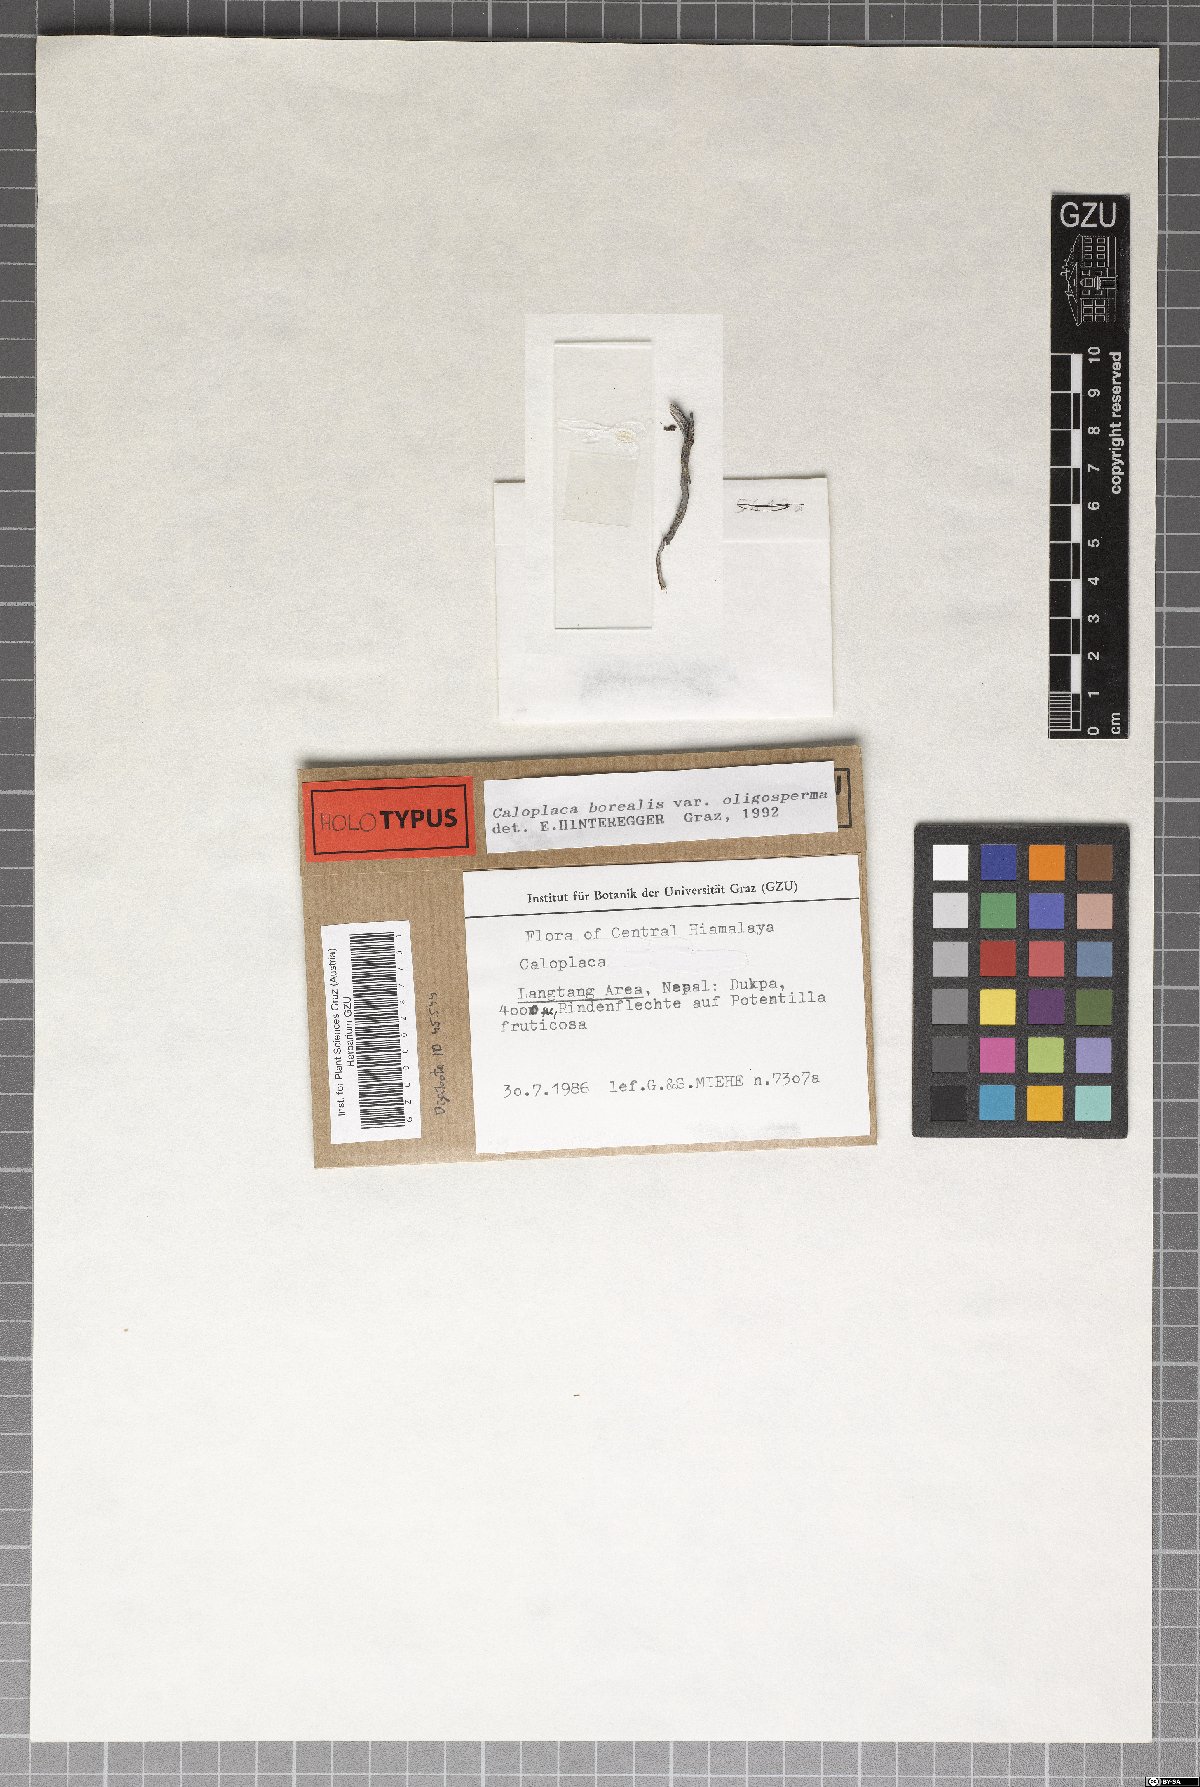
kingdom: Fungi
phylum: Ascomycota
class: Lecanoromycetes
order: Teloschistales
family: Teloschistaceae
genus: Lendemeriella
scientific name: Lendemeriella borealis
